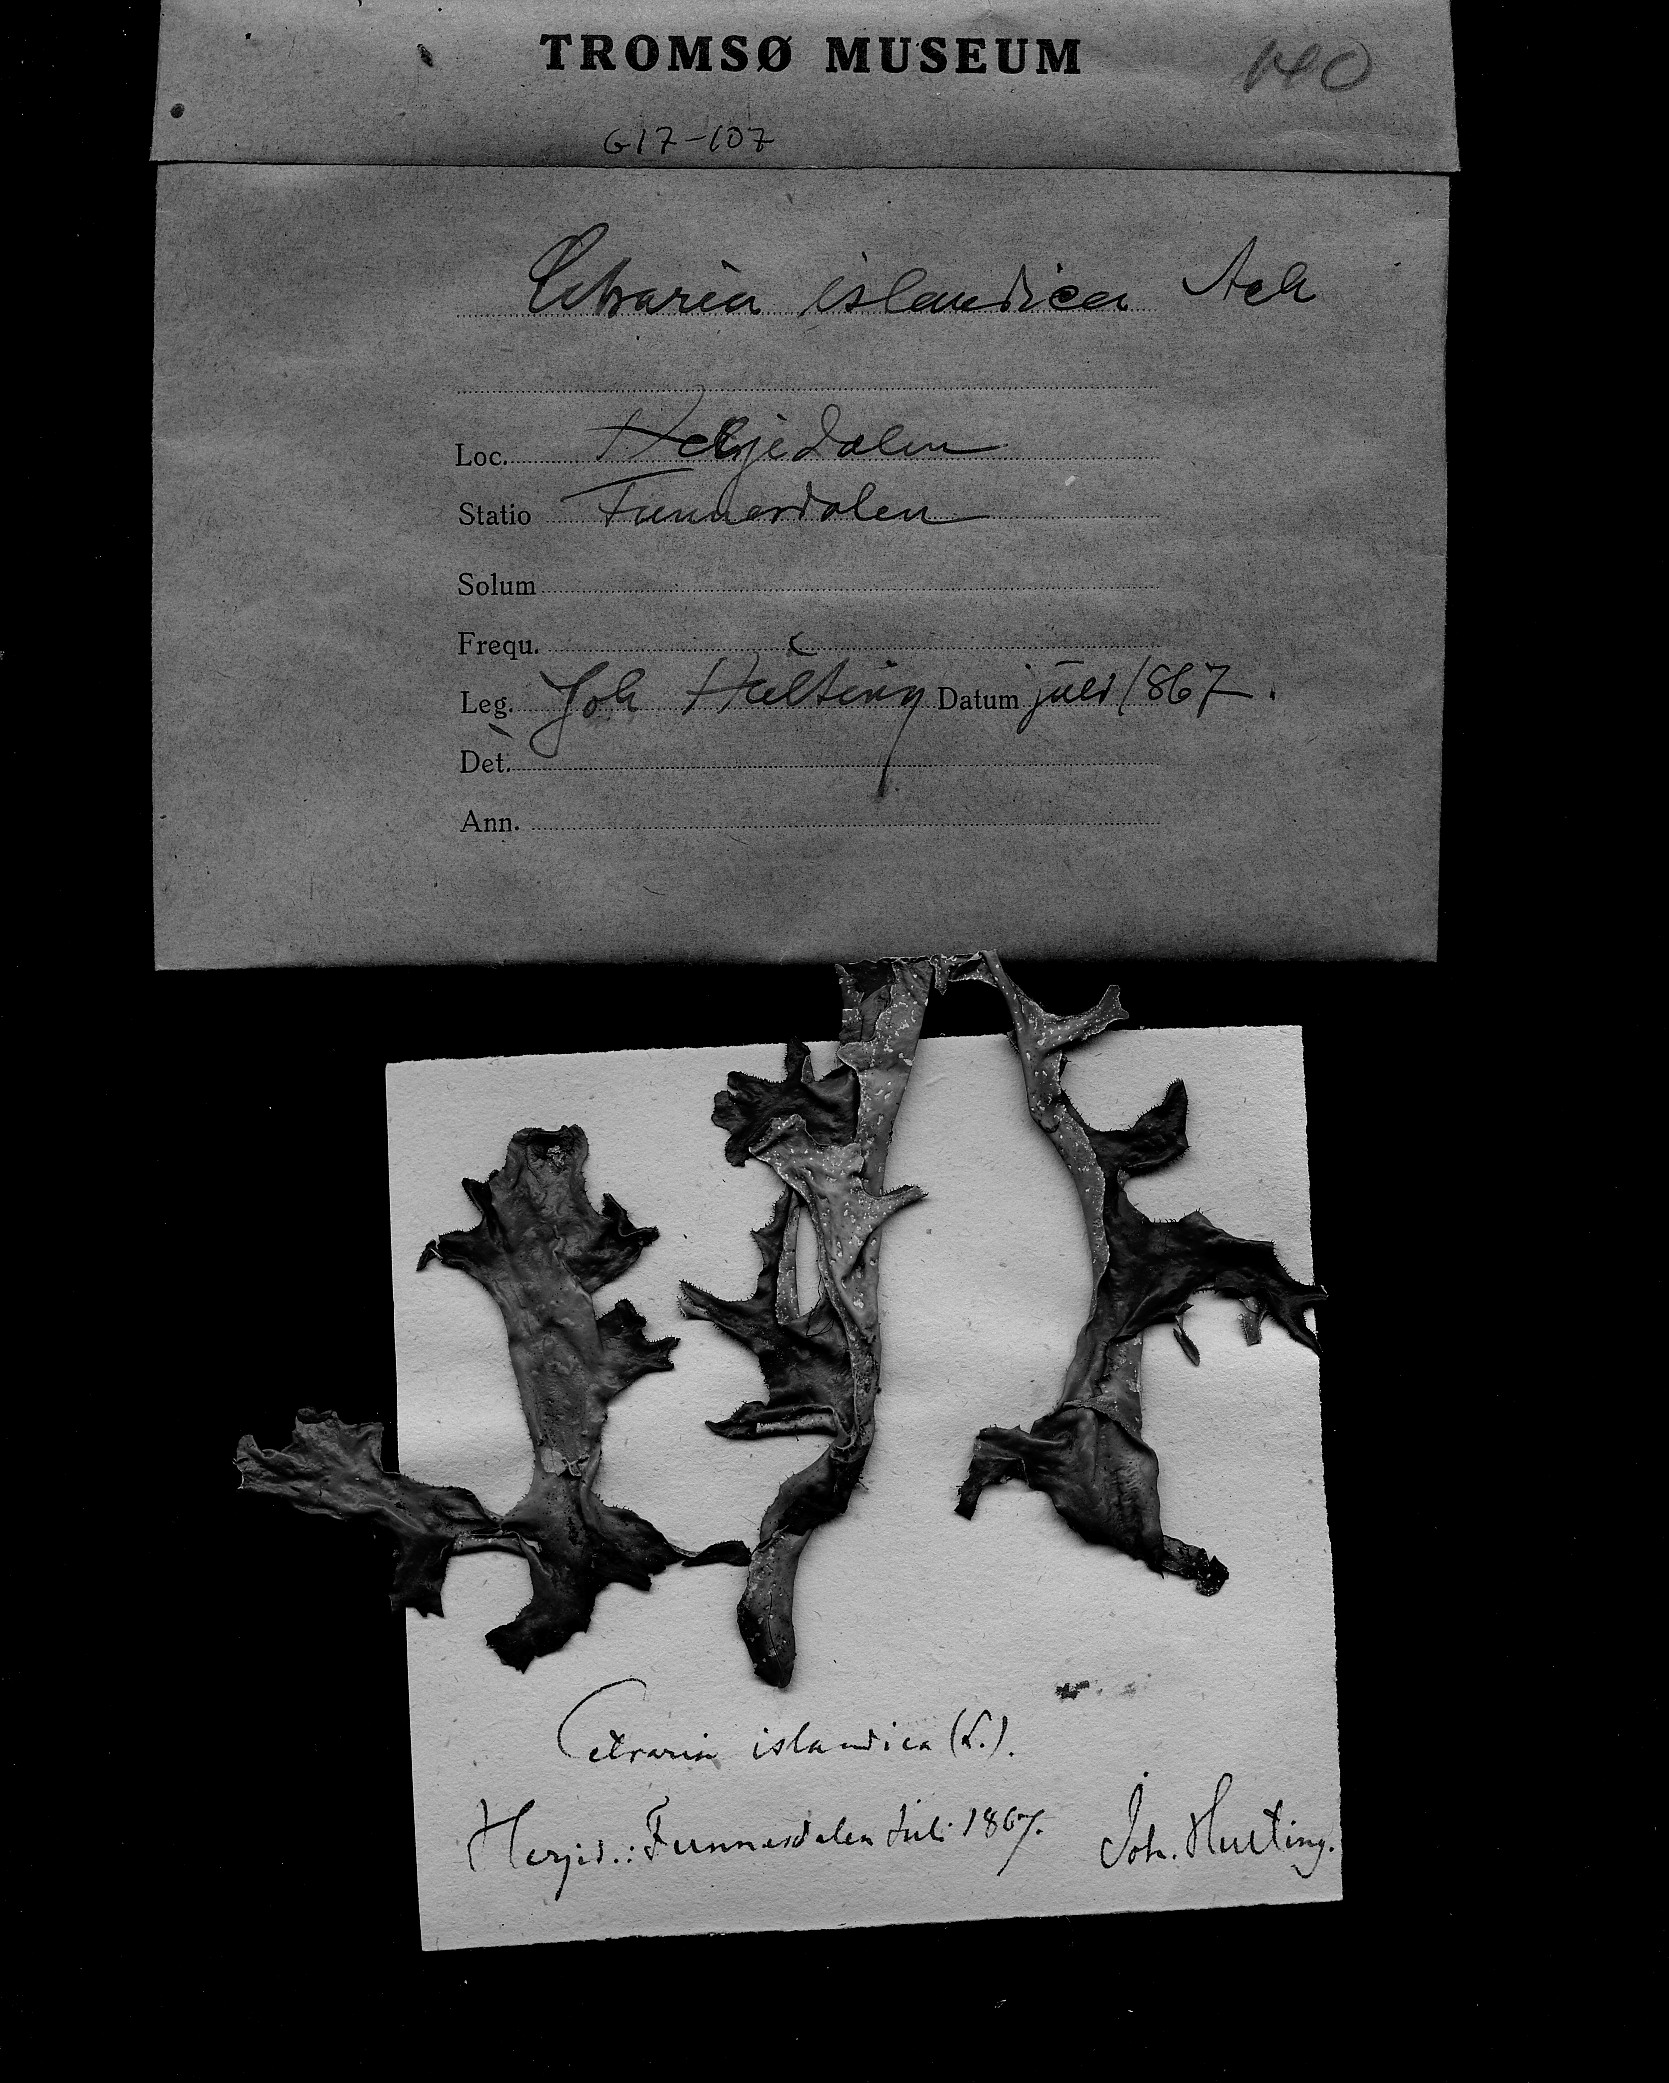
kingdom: Fungi
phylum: Ascomycota
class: Lecanoromycetes
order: Lecanorales
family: Parmeliaceae
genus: Cetraria
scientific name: Cetraria islandica
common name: Iceland lichen
